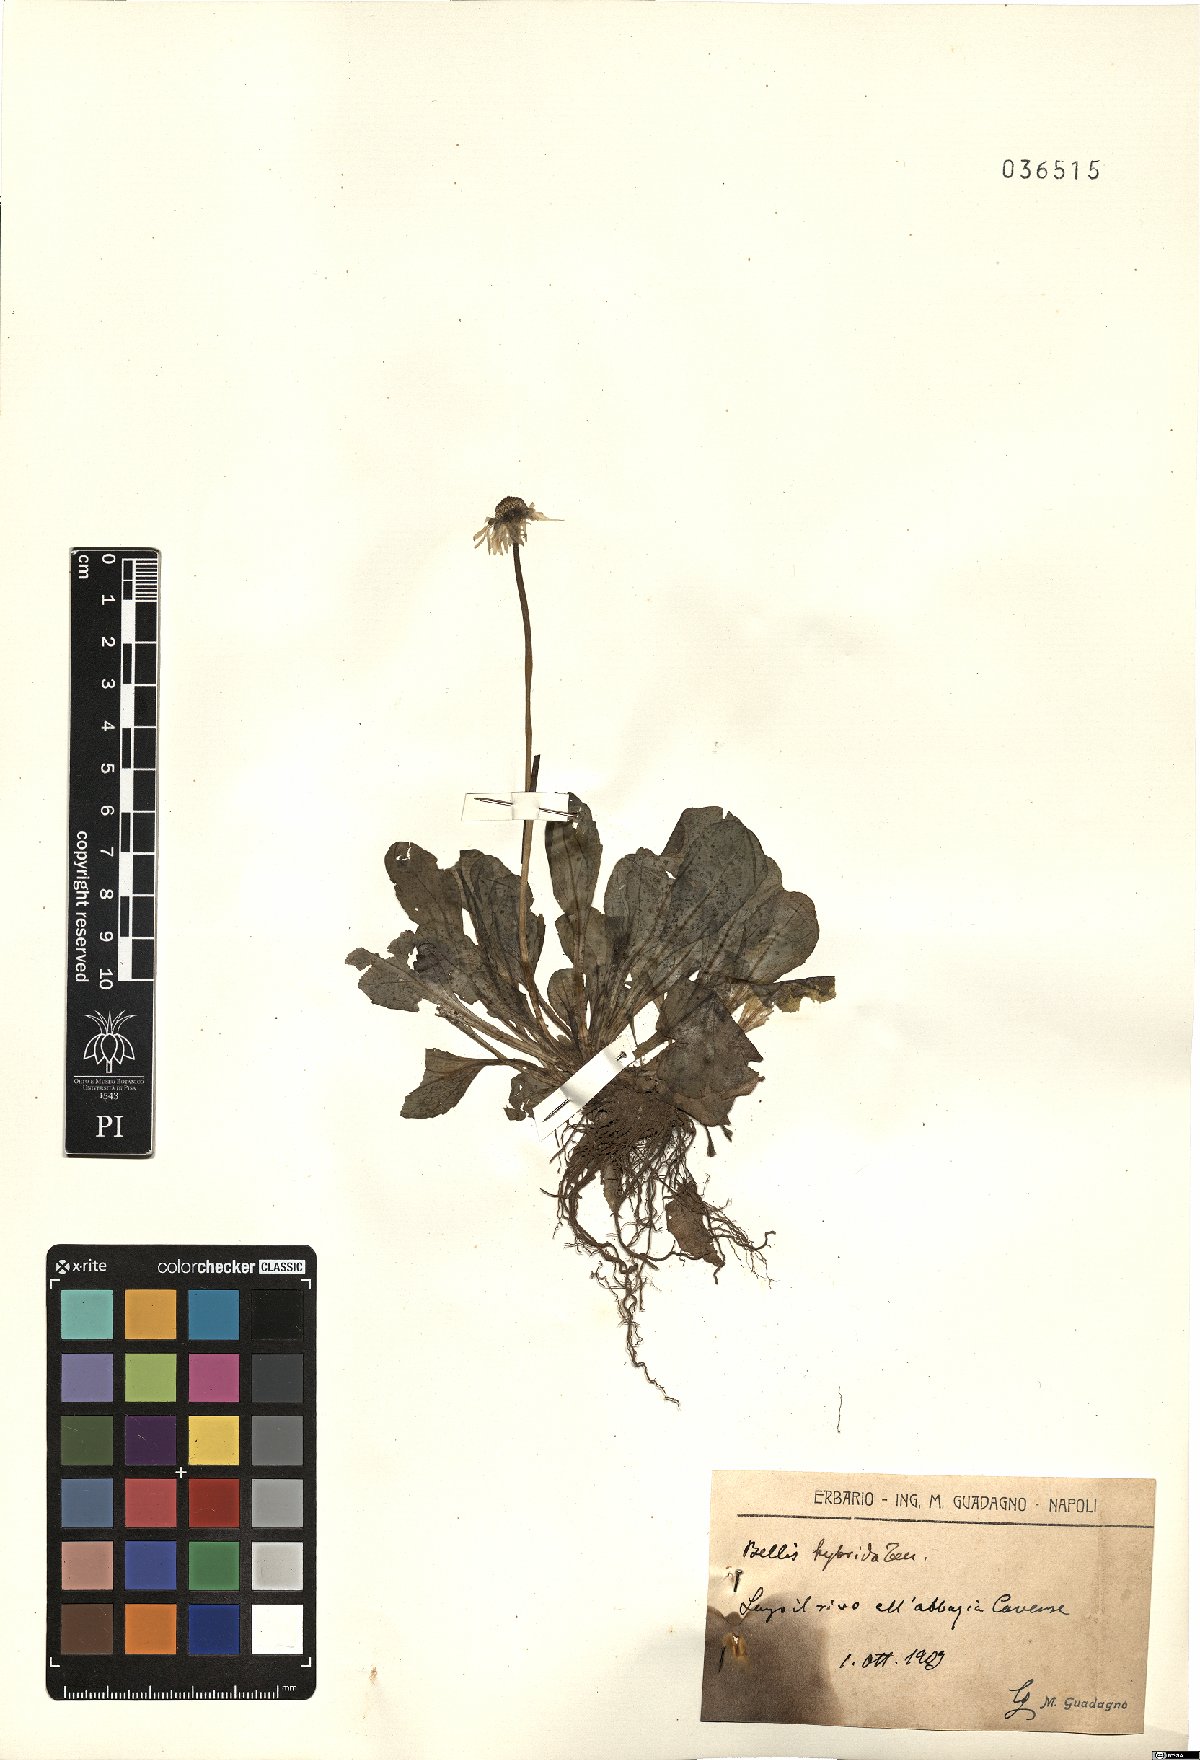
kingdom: Plantae
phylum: Tracheophyta
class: Magnoliopsida
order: Asterales
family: Asteraceae
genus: Bellis
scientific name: Bellis perennis
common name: Lawndaisy
